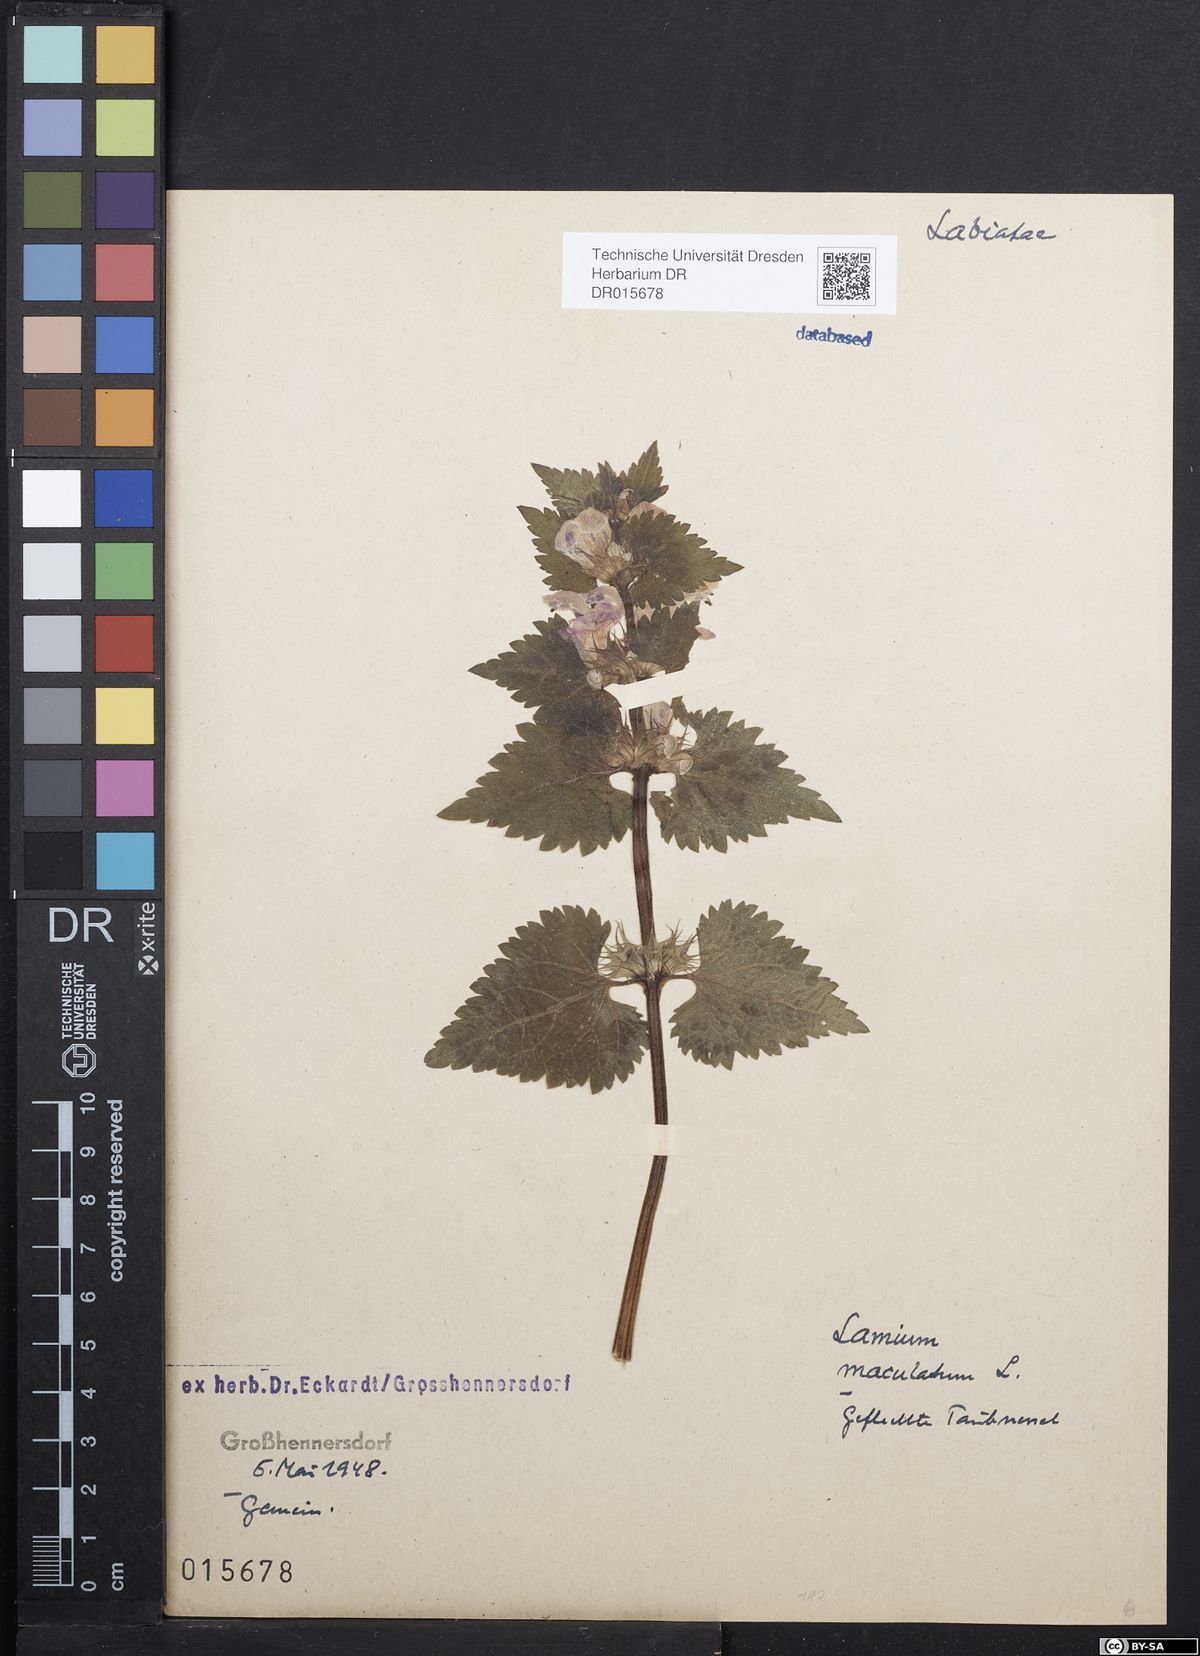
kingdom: Plantae
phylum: Tracheophyta
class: Magnoliopsida
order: Lamiales
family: Lamiaceae
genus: Lamium
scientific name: Lamium maculatum
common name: Spotted dead-nettle
